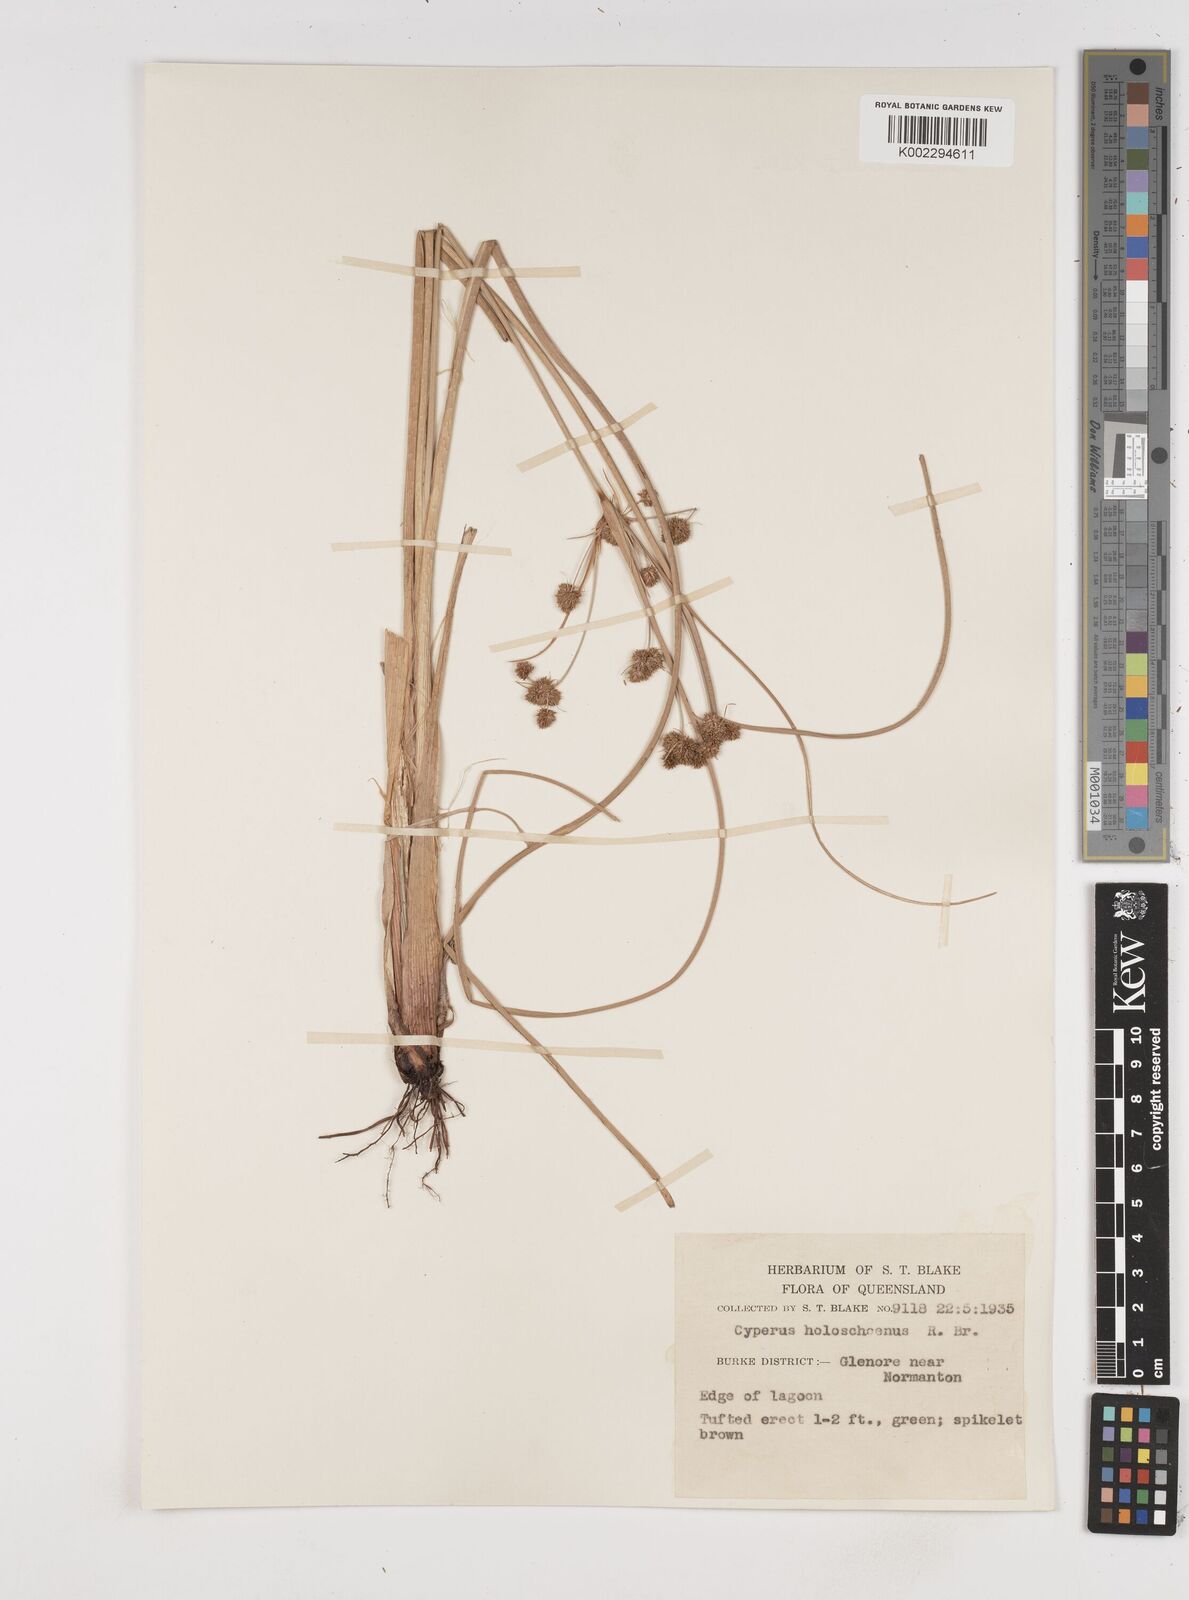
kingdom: Plantae
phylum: Tracheophyta
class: Liliopsida
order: Poales
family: Cyperaceae
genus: Cyperus
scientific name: Cyperus holoschoenus
